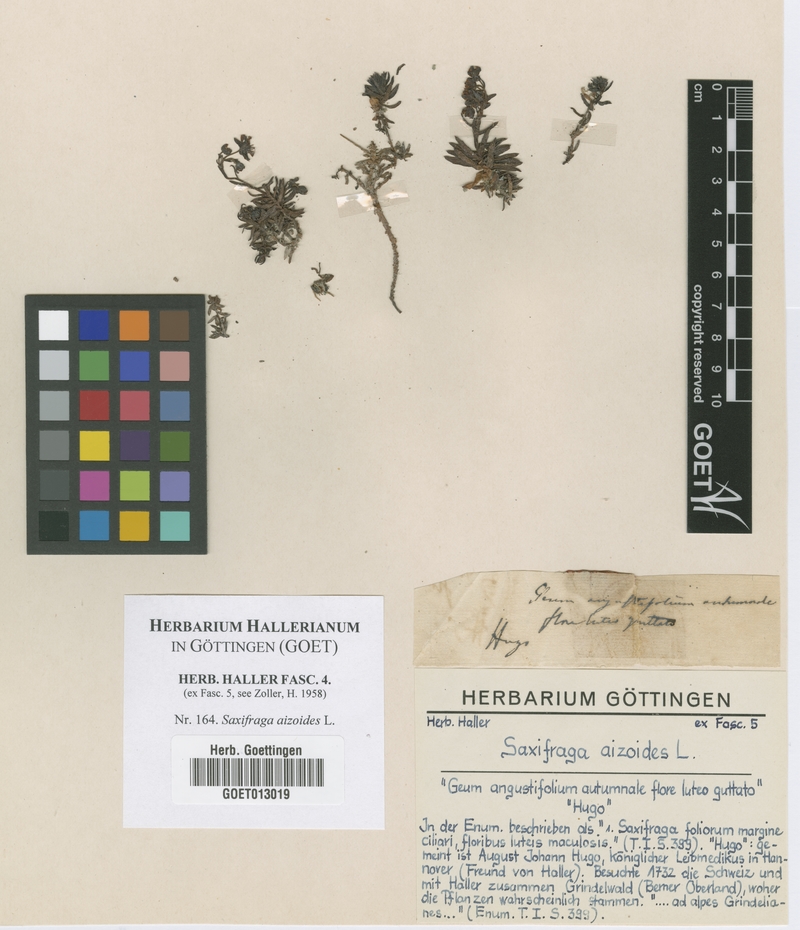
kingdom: Plantae
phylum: Tracheophyta
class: Magnoliopsida
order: Saxifragales
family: Saxifragaceae
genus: Saxifraga
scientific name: Saxifraga aizoides
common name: Yellow mountain saxifrage
